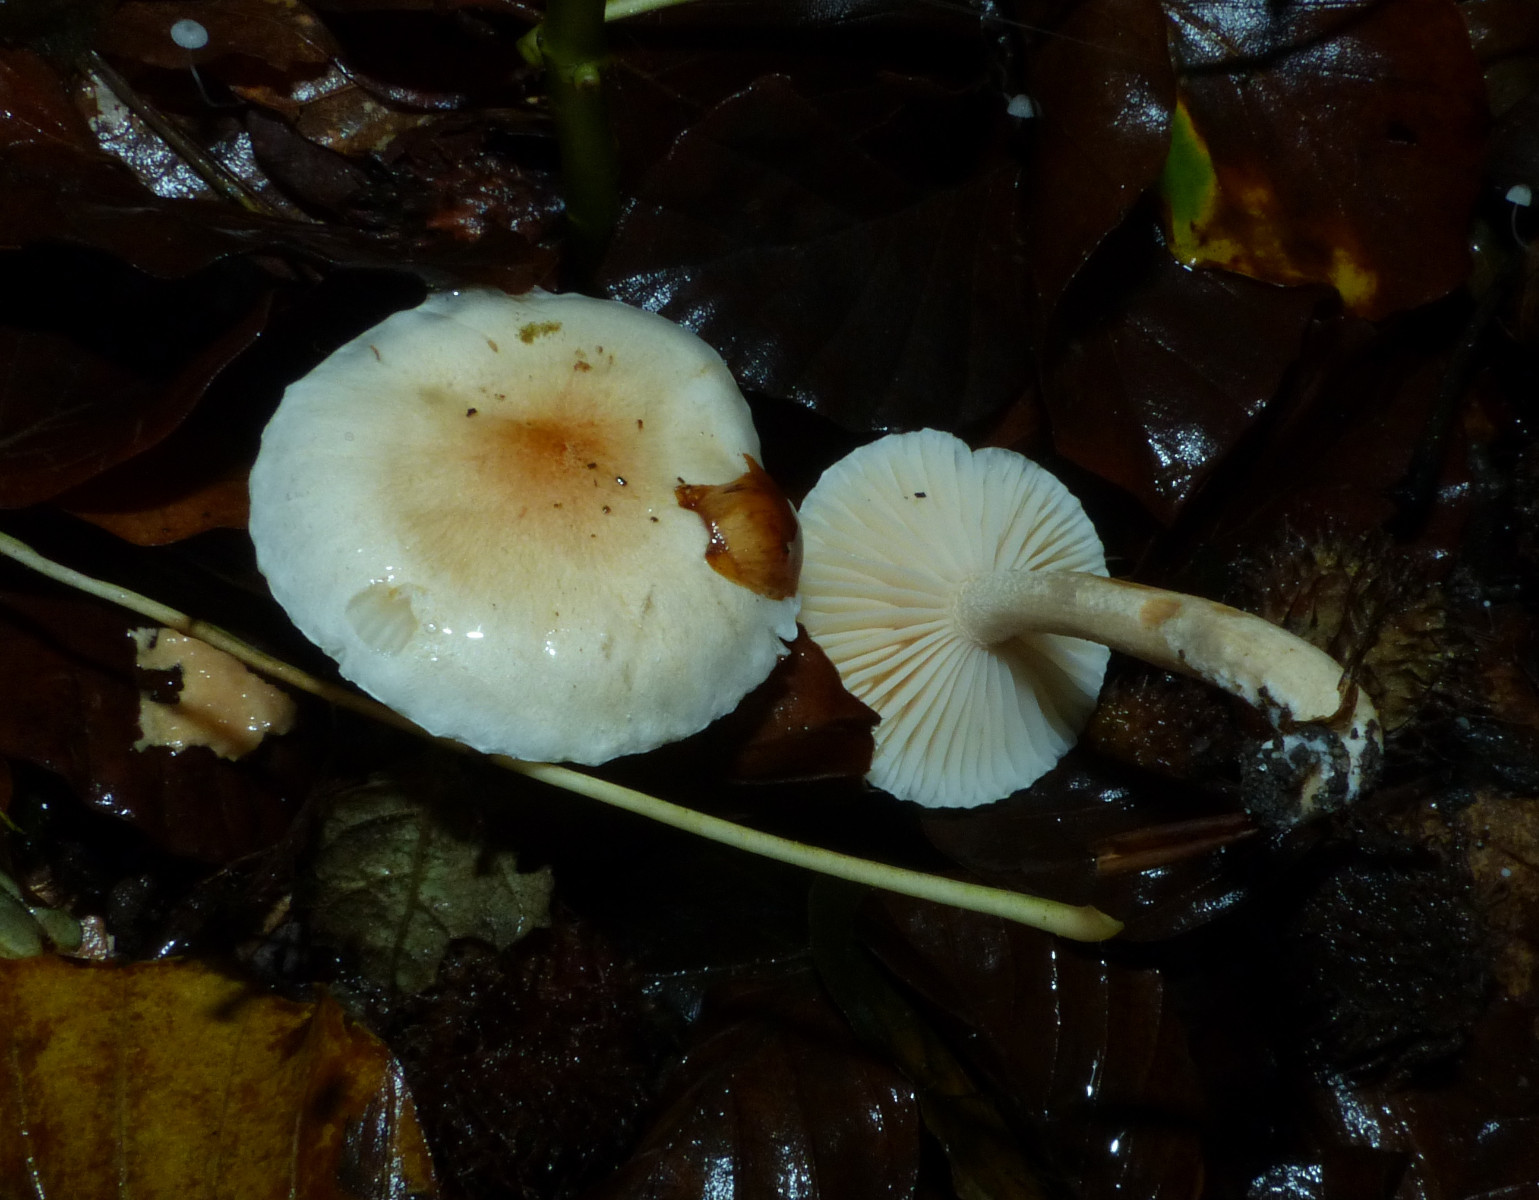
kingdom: Fungi
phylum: Basidiomycota
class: Agaricomycetes
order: Agaricales
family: Hygrophoraceae
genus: Hygrophorus
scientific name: Hygrophorus unicolor
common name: orangeøjet sneglehat
